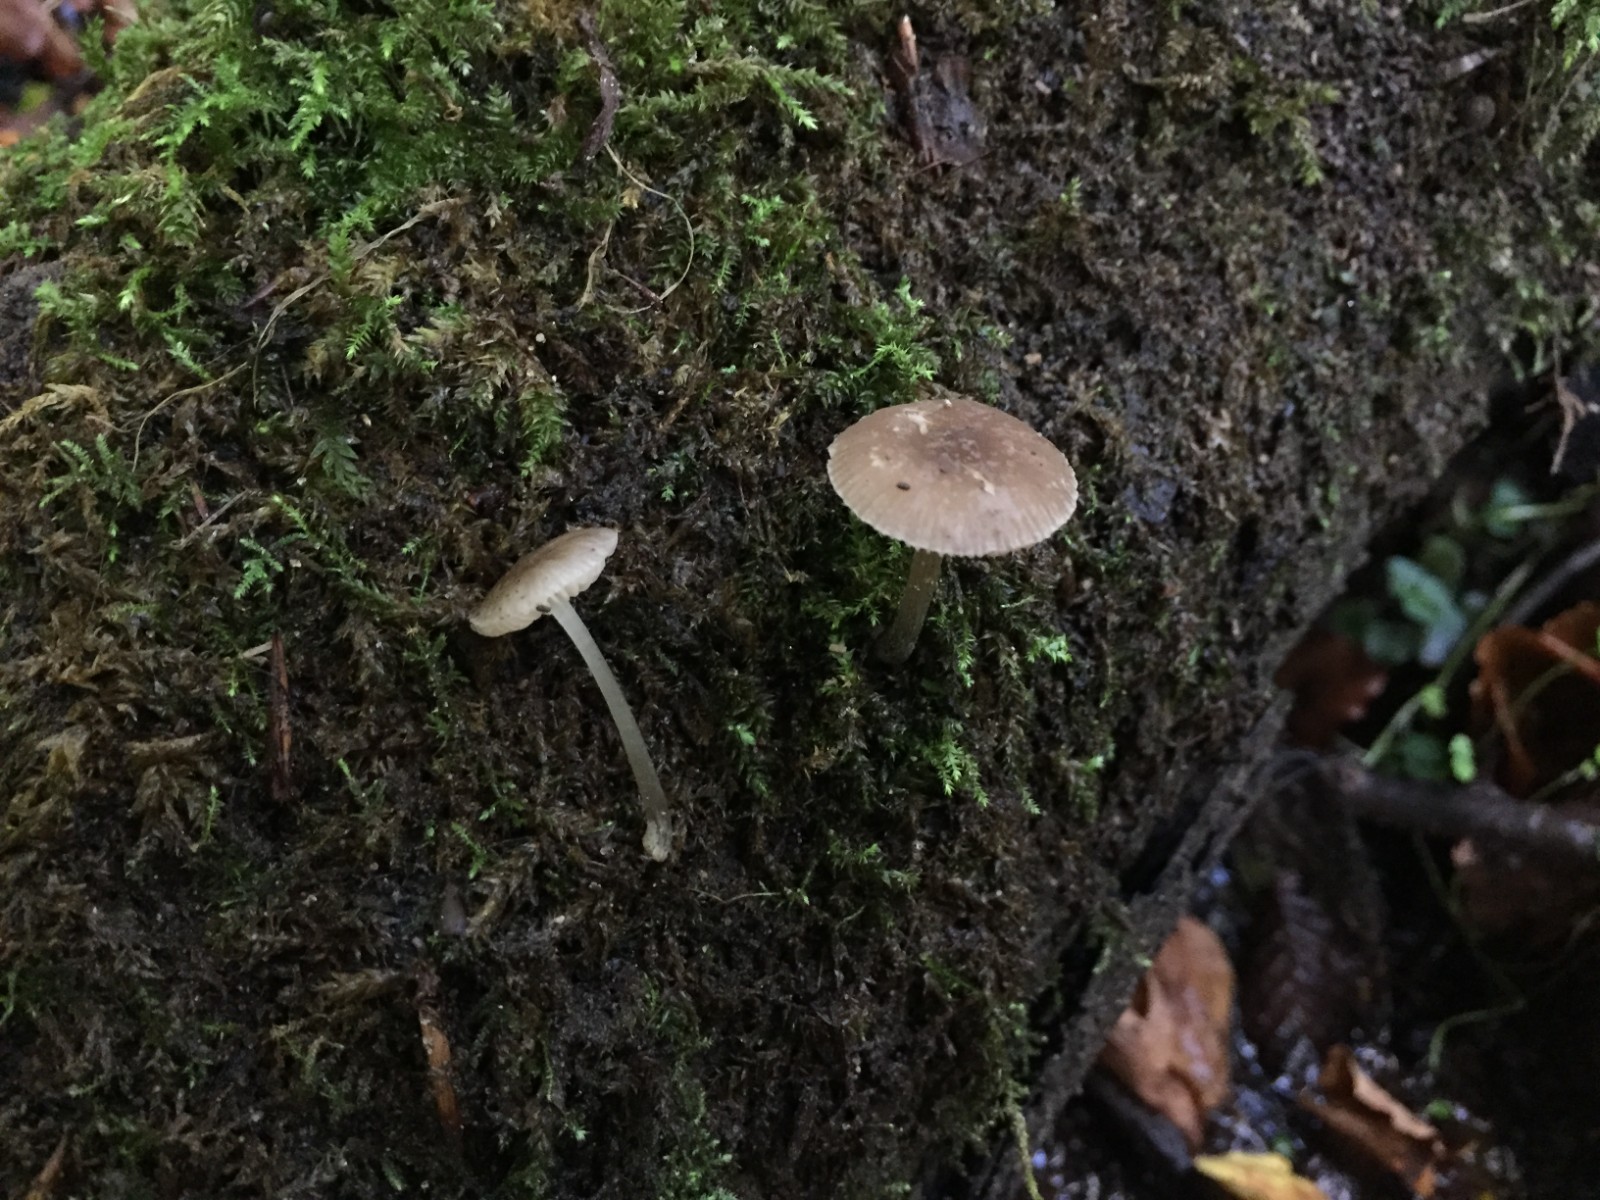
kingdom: Fungi
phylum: Basidiomycota
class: Agaricomycetes
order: Agaricales
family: Pluteaceae
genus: Pluteus
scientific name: Pluteus
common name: pudret skærmhat
